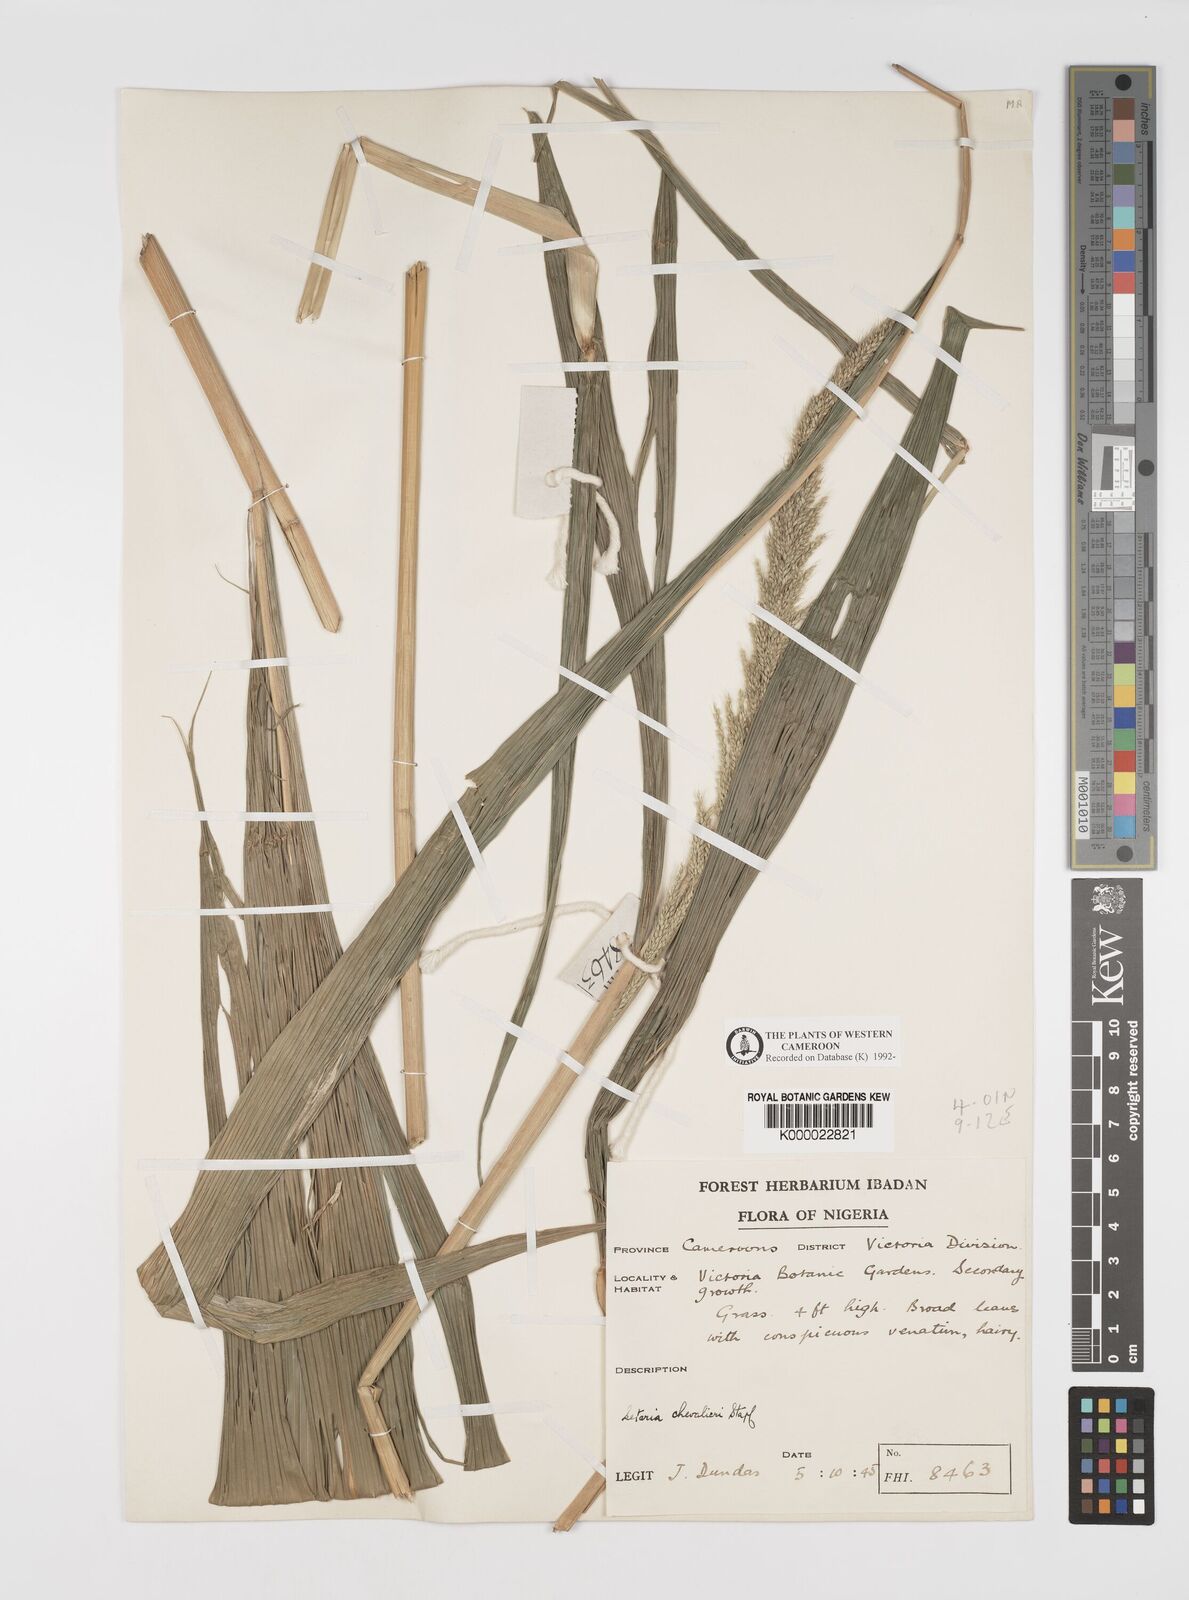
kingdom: Plantae
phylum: Tracheophyta
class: Liliopsida
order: Poales
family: Poaceae
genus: Setaria
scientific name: Setaria megaphylla
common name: Bigleaf bristlegrass
